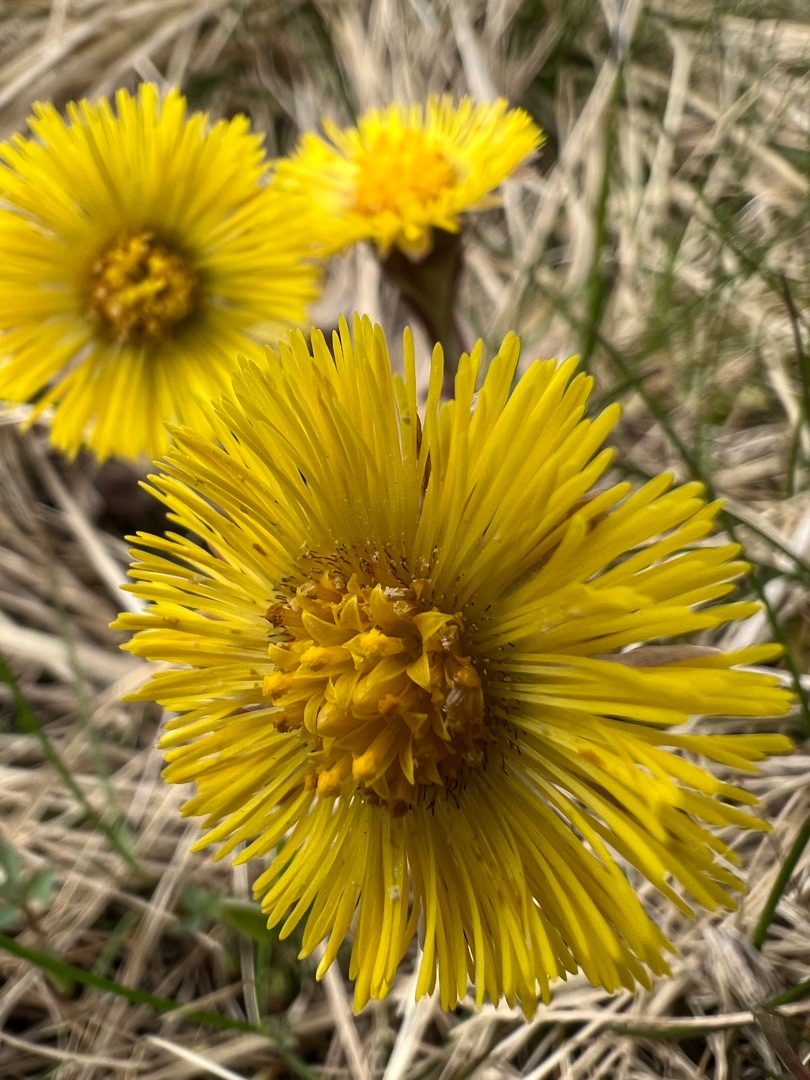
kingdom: Plantae
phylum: Tracheophyta
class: Magnoliopsida
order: Asterales
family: Asteraceae
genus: Tussilago
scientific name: Tussilago farfara
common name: Følfod
